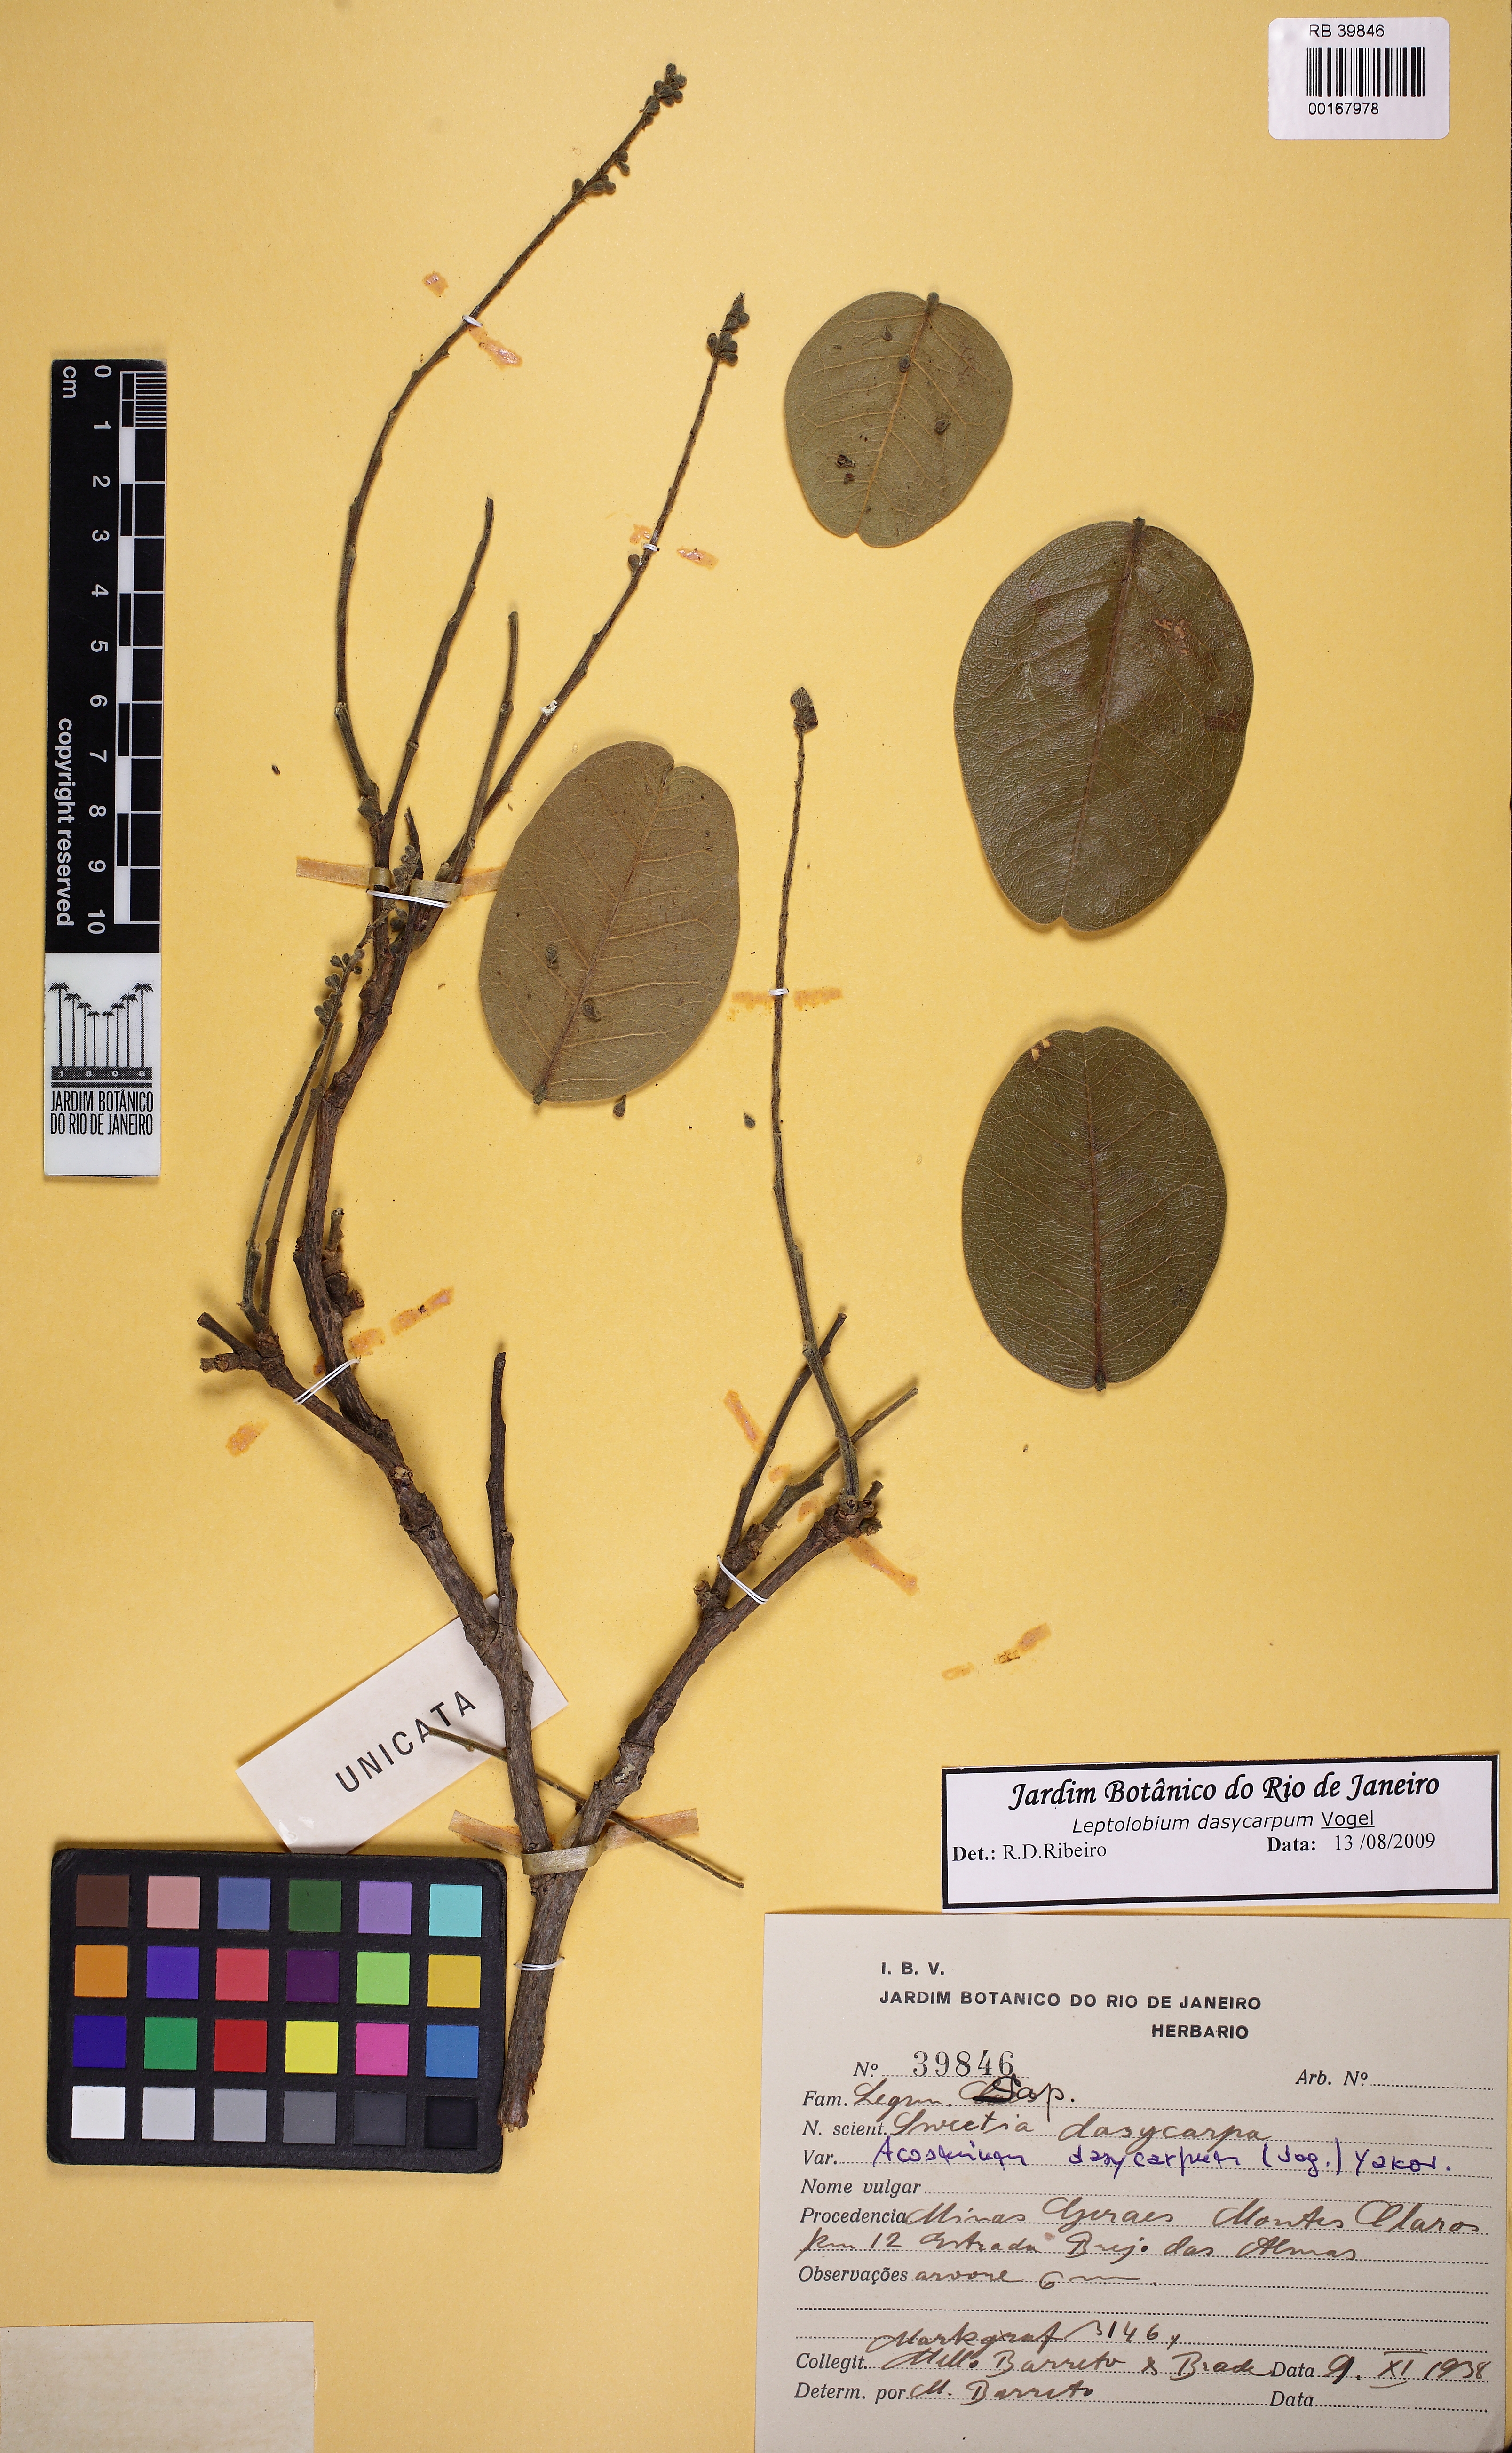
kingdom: Plantae
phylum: Tracheophyta
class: Magnoliopsida
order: Fabales
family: Fabaceae
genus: Leptolobium
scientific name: Leptolobium dasycarpum
